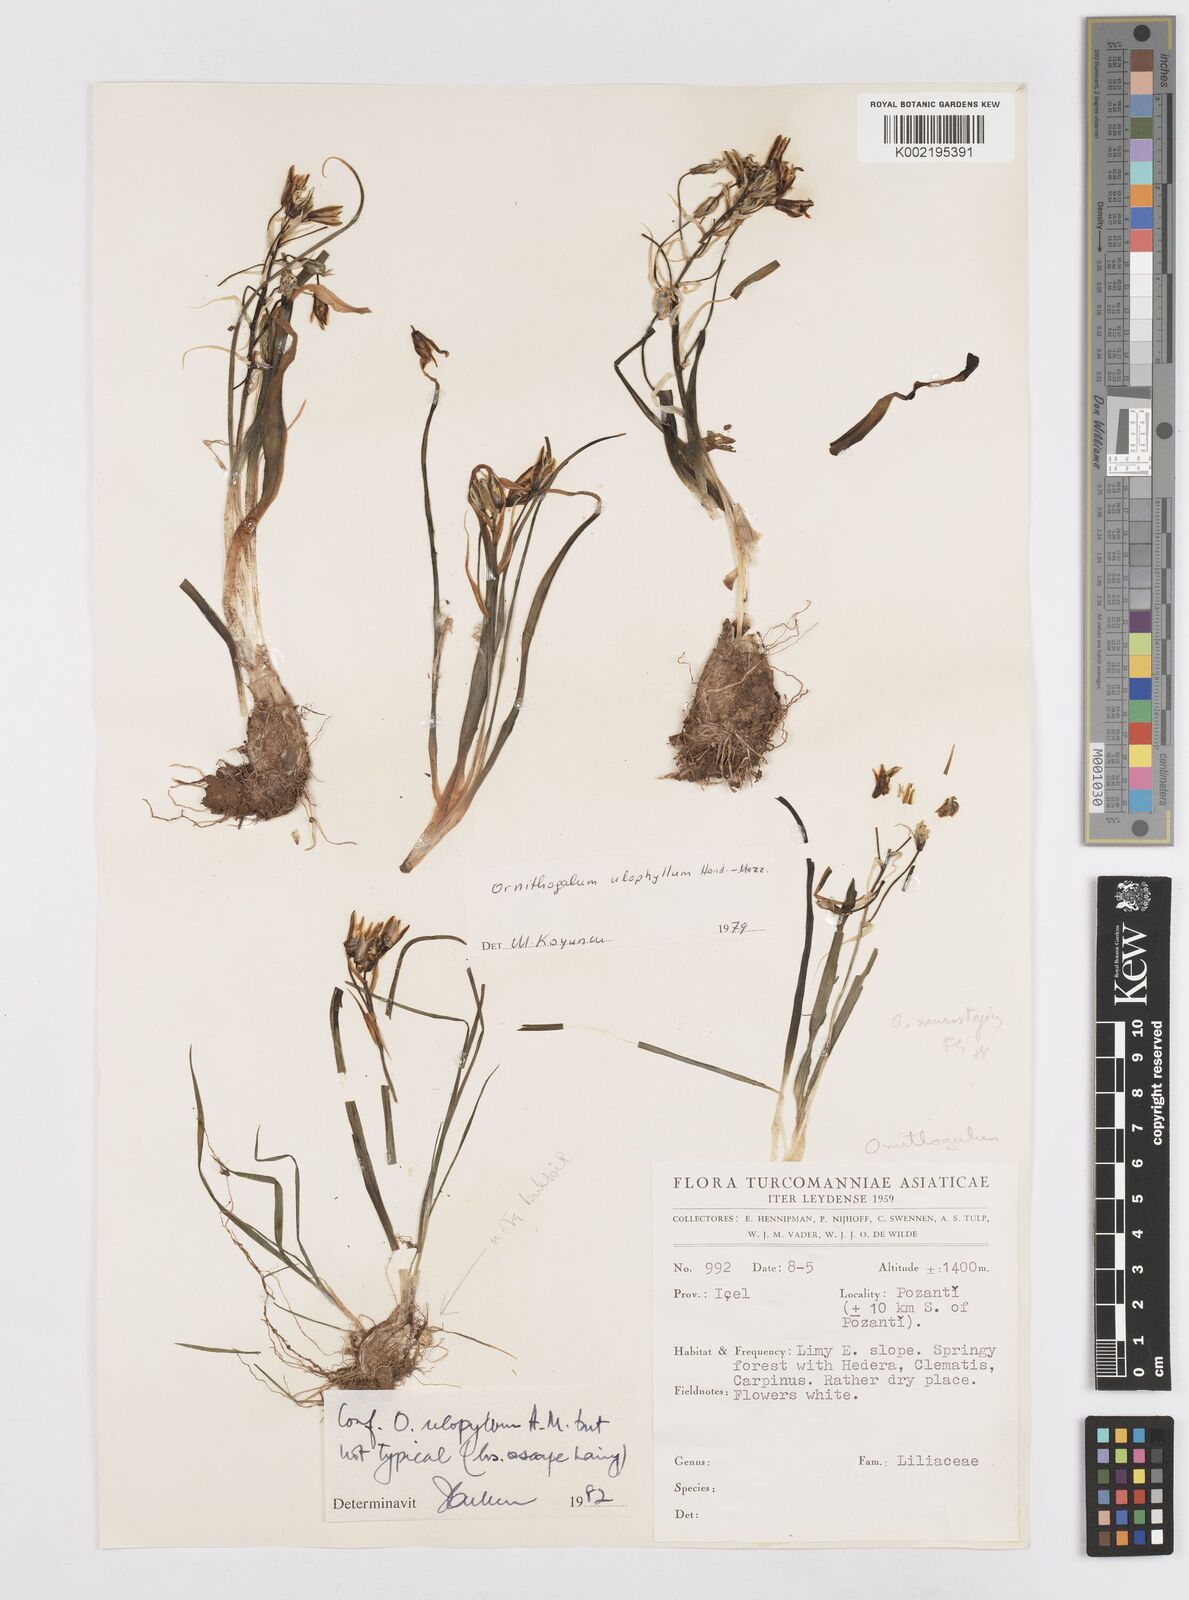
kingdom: Plantae
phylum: Tracheophyta
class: Liliopsida
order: Asparagales
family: Asparagaceae
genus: Ornithogalum
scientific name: Ornithogalum neurostegium
